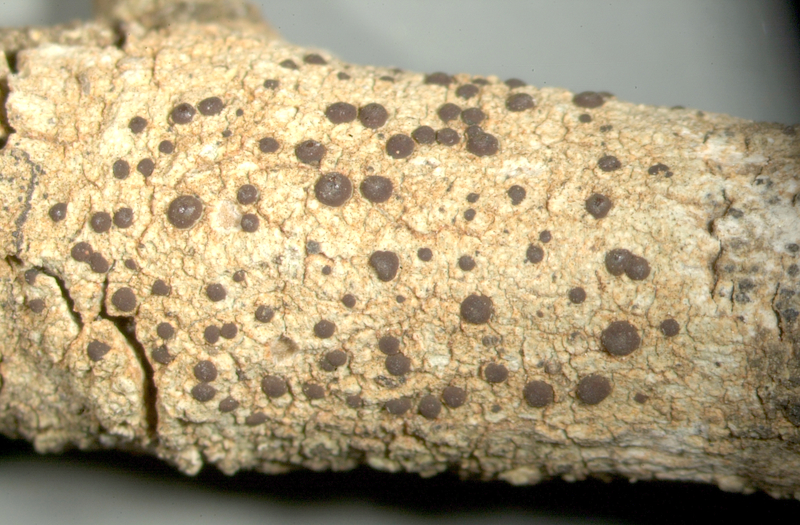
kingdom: Fungi
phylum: Ascomycota
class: Lecanoromycetes
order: Caliciales
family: Caliciaceae
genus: Buellia
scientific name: Buellia
